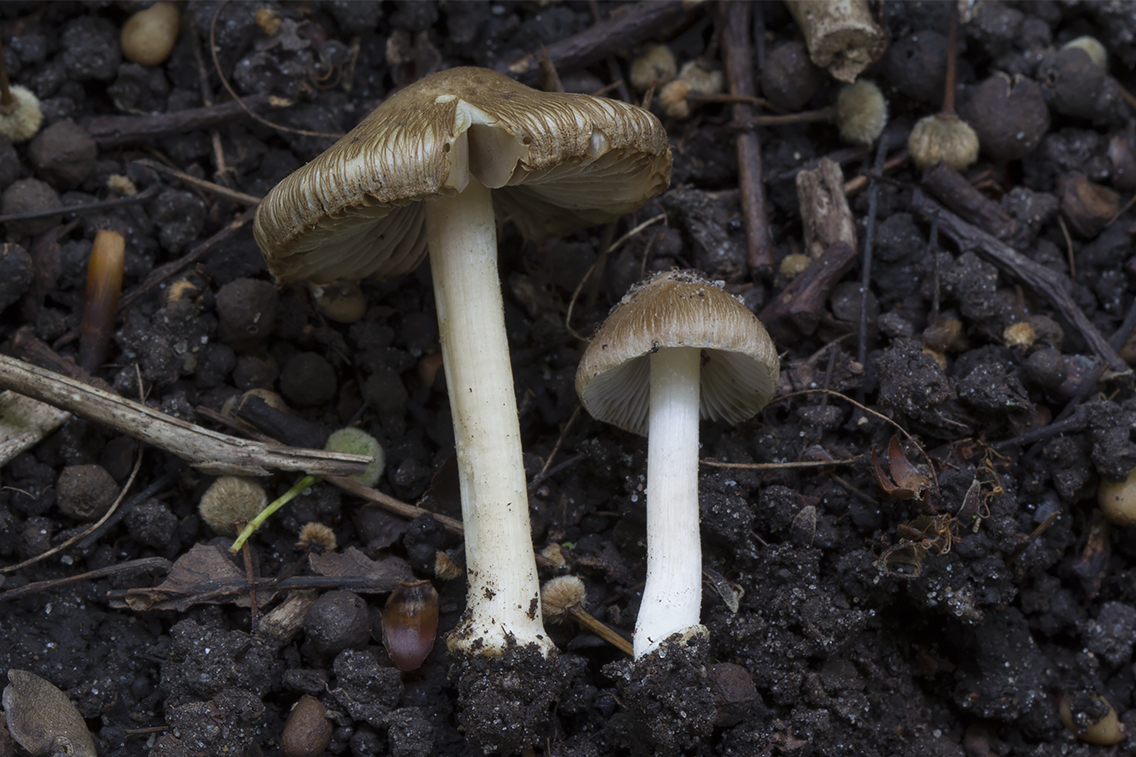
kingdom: Fungi
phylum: Basidiomycota
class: Agaricomycetes
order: Agaricales
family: Inocybaceae
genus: Inocybe
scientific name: Inocybe margaritispora
